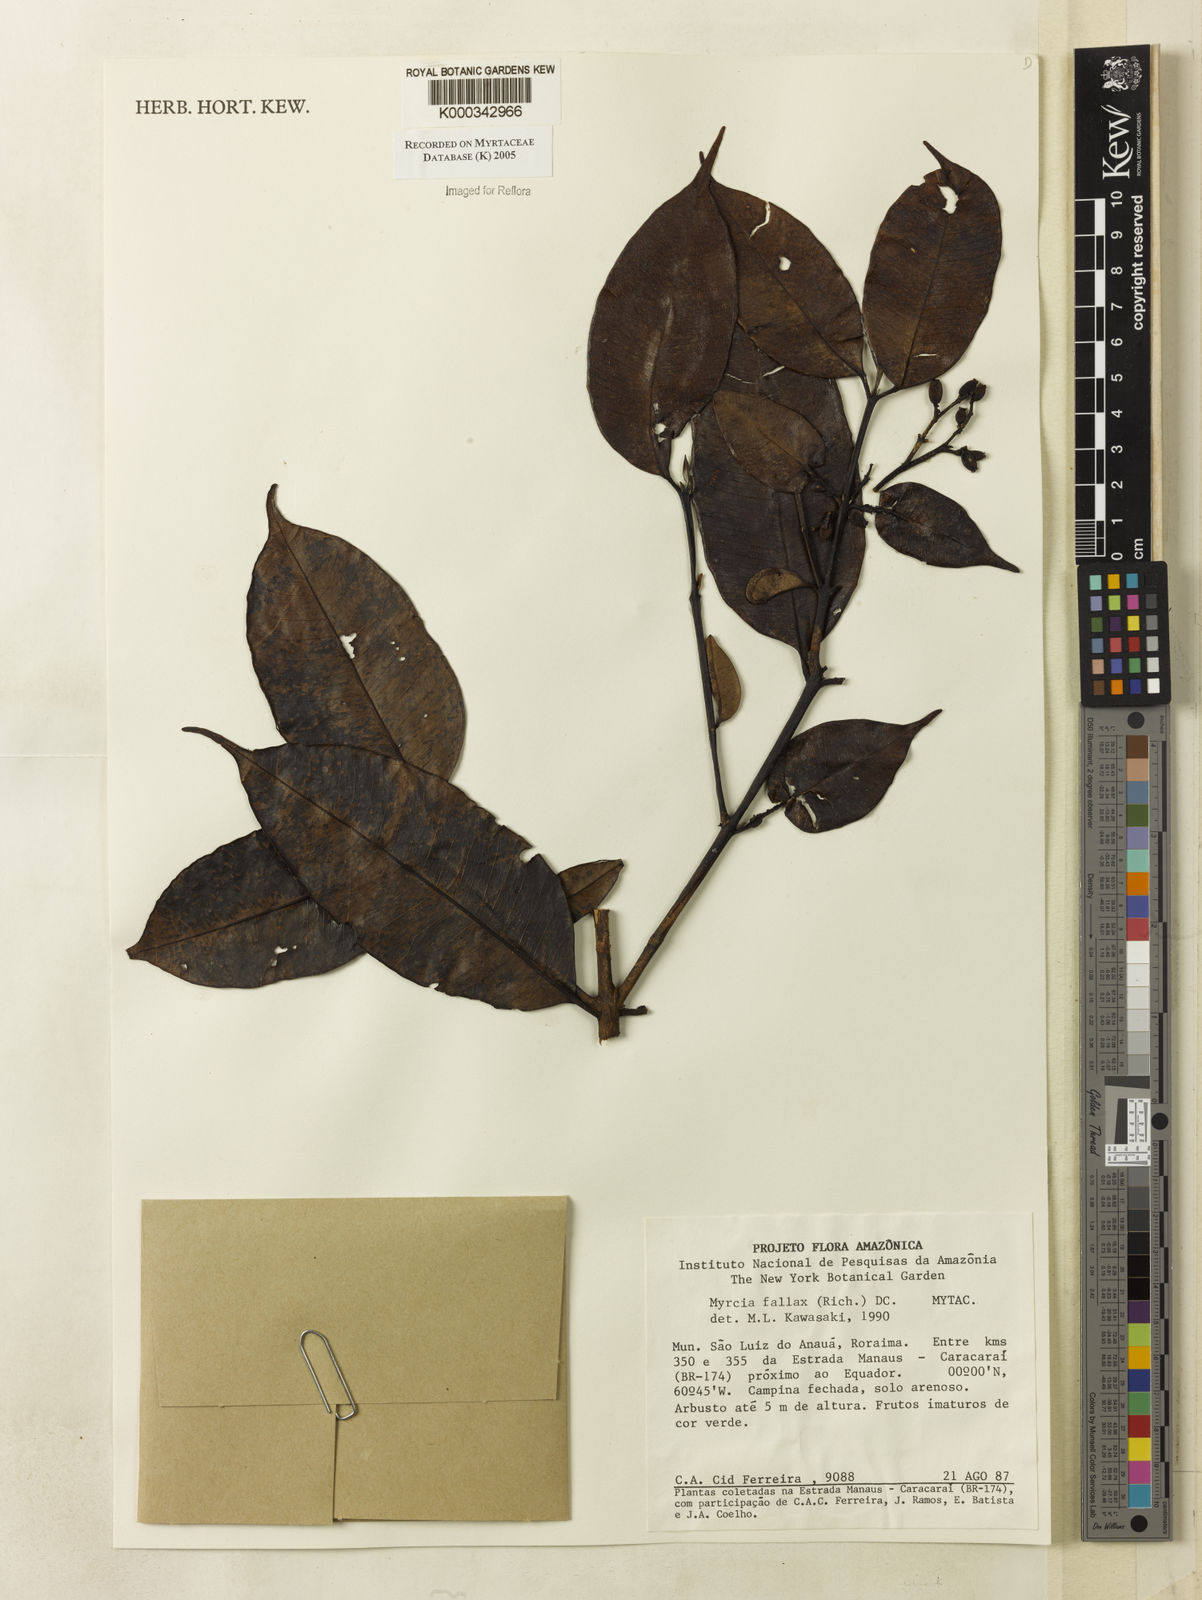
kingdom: Plantae
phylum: Tracheophyta
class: Magnoliopsida
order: Myrtales
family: Myrtaceae
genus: Myrcia
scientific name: Myrcia splendens
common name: Surinam cherry
